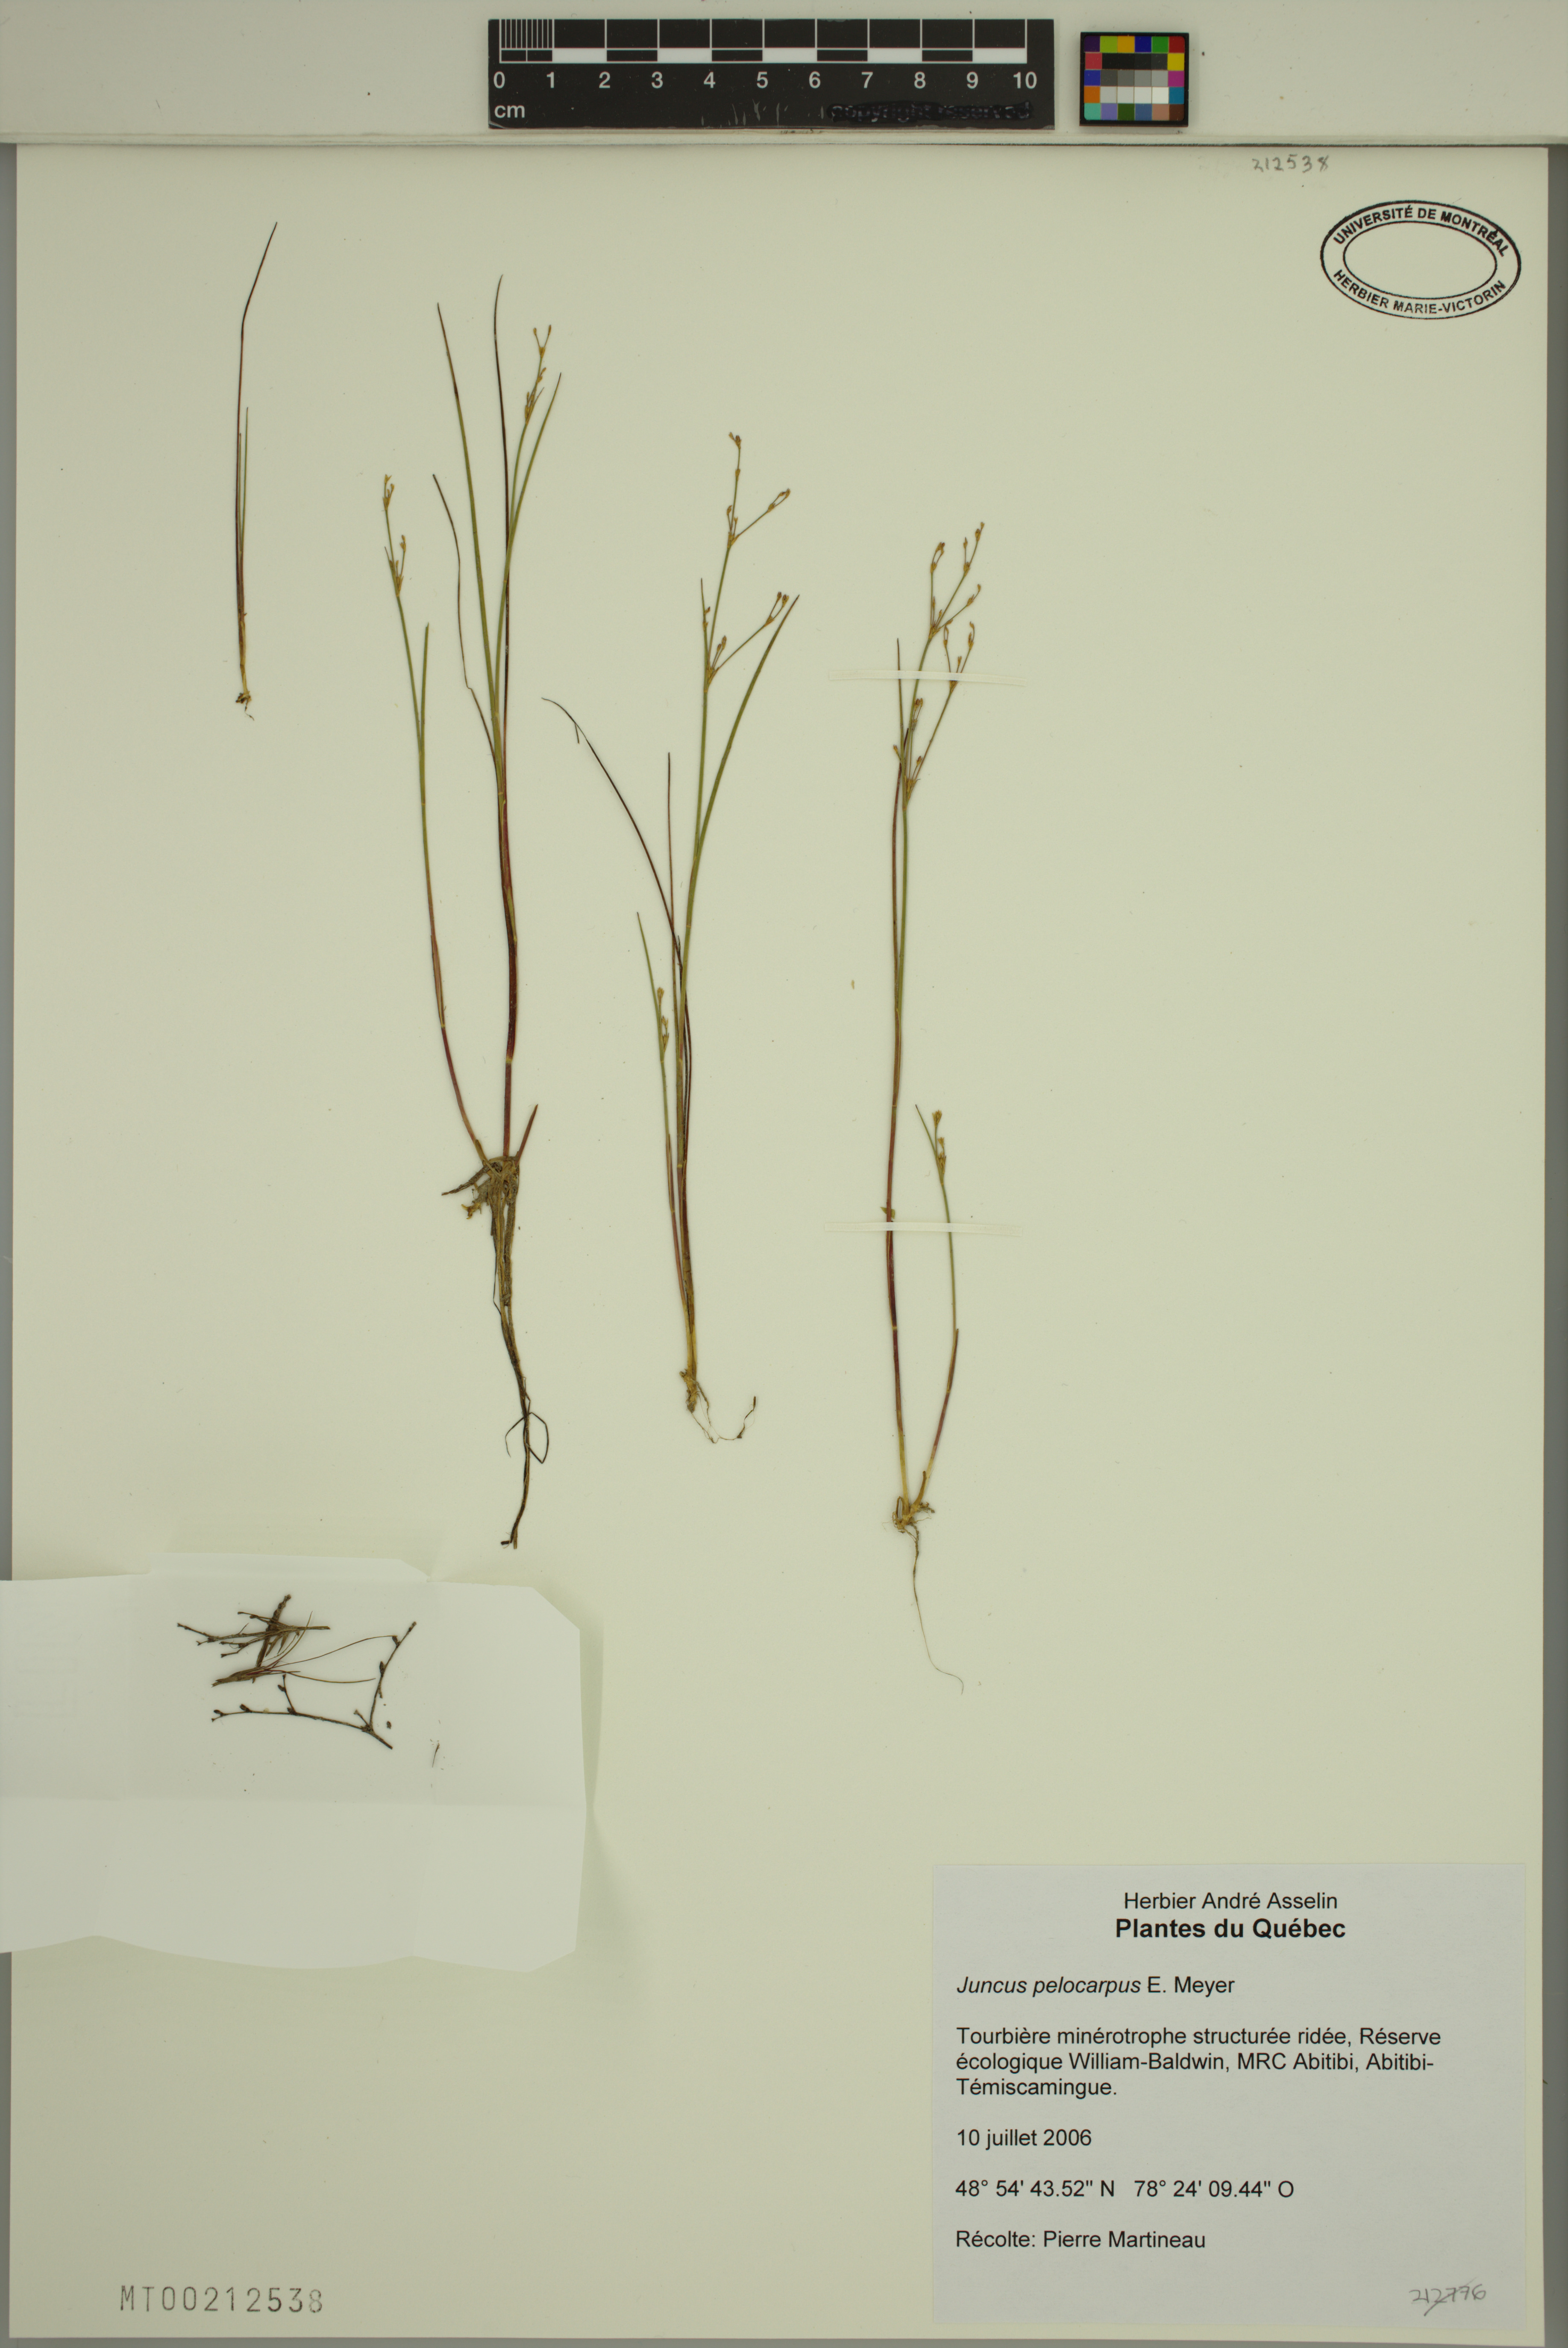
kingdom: Plantae
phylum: Tracheophyta
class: Liliopsida
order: Poales
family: Juncaceae
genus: Juncus
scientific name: Juncus pelocarpus
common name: Brown-fruited rush
